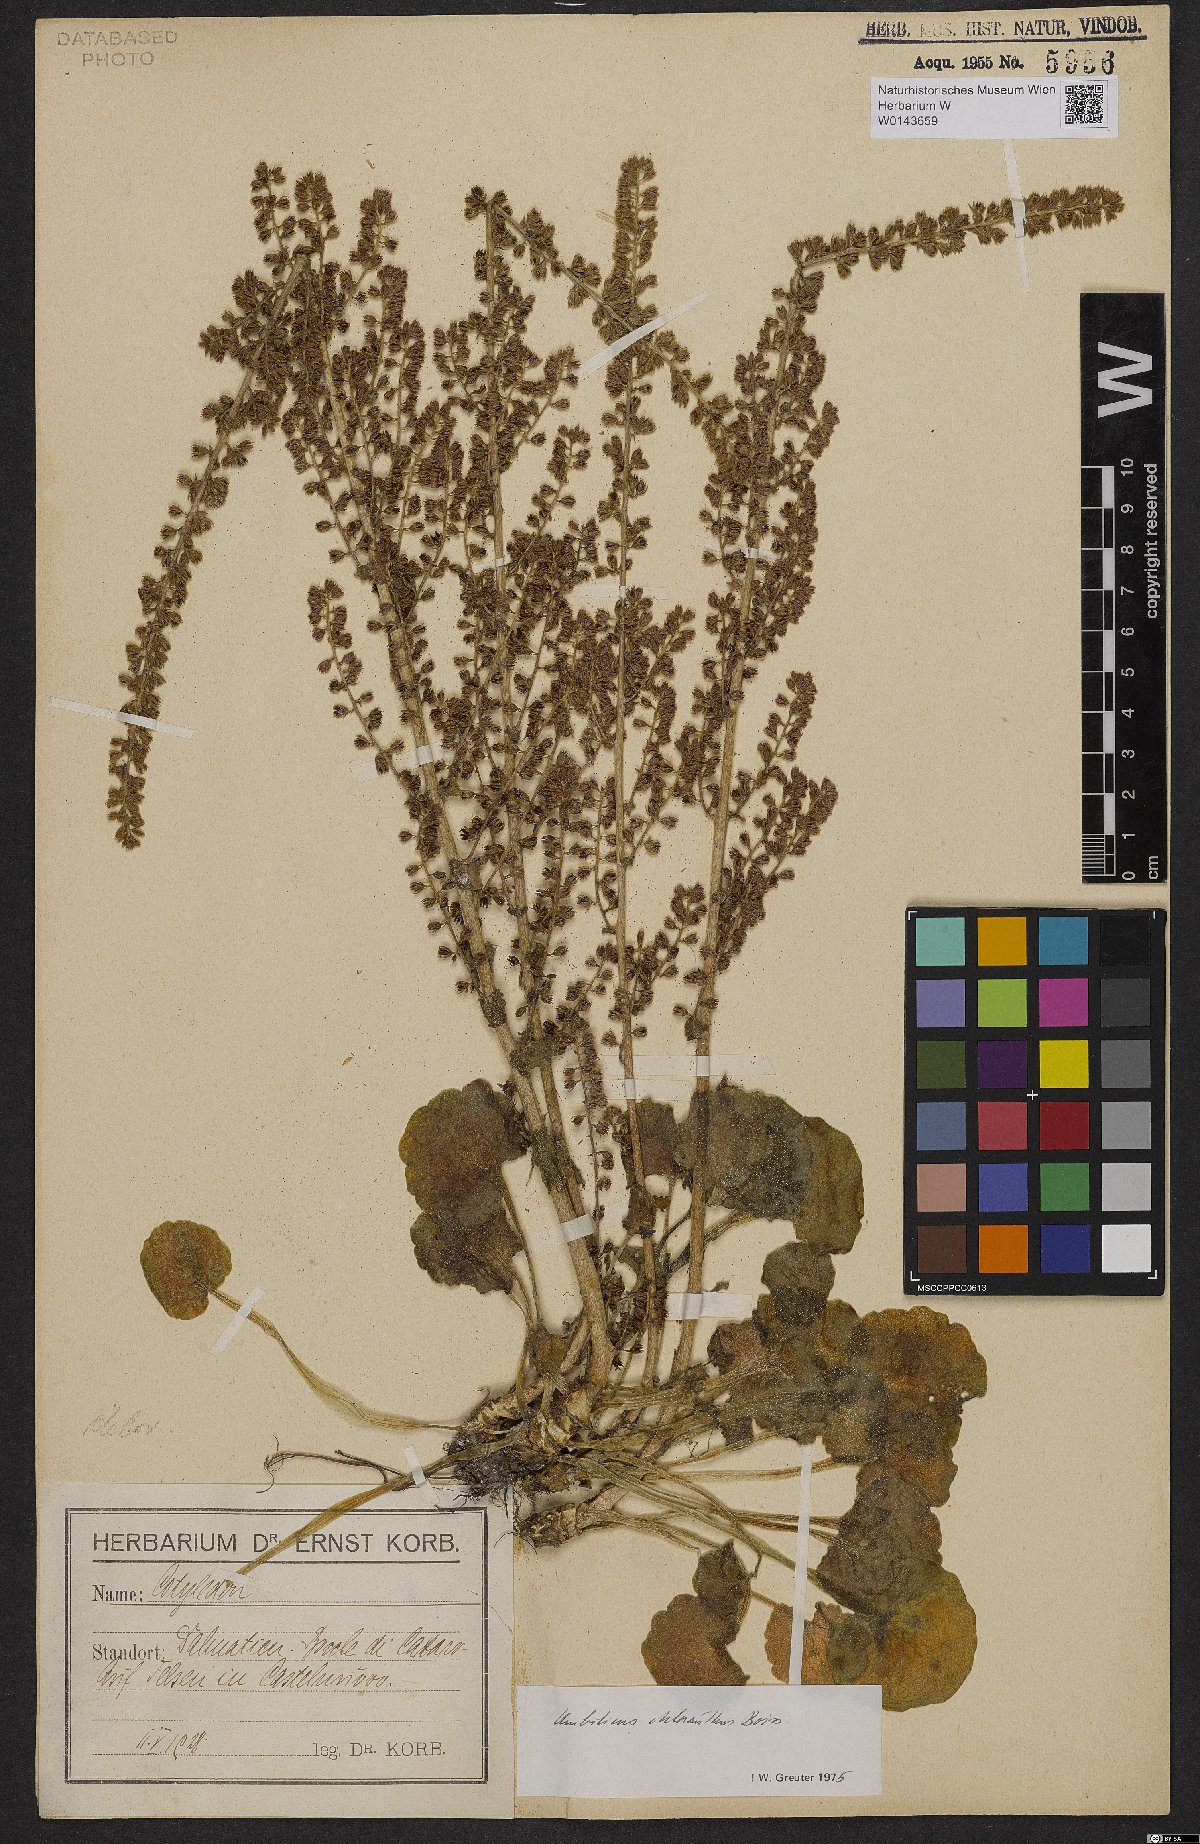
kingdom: Plantae
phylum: Tracheophyta
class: Magnoliopsida
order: Saxifragales
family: Crassulaceae
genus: Umbilicus
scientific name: Umbilicus chloranthus
